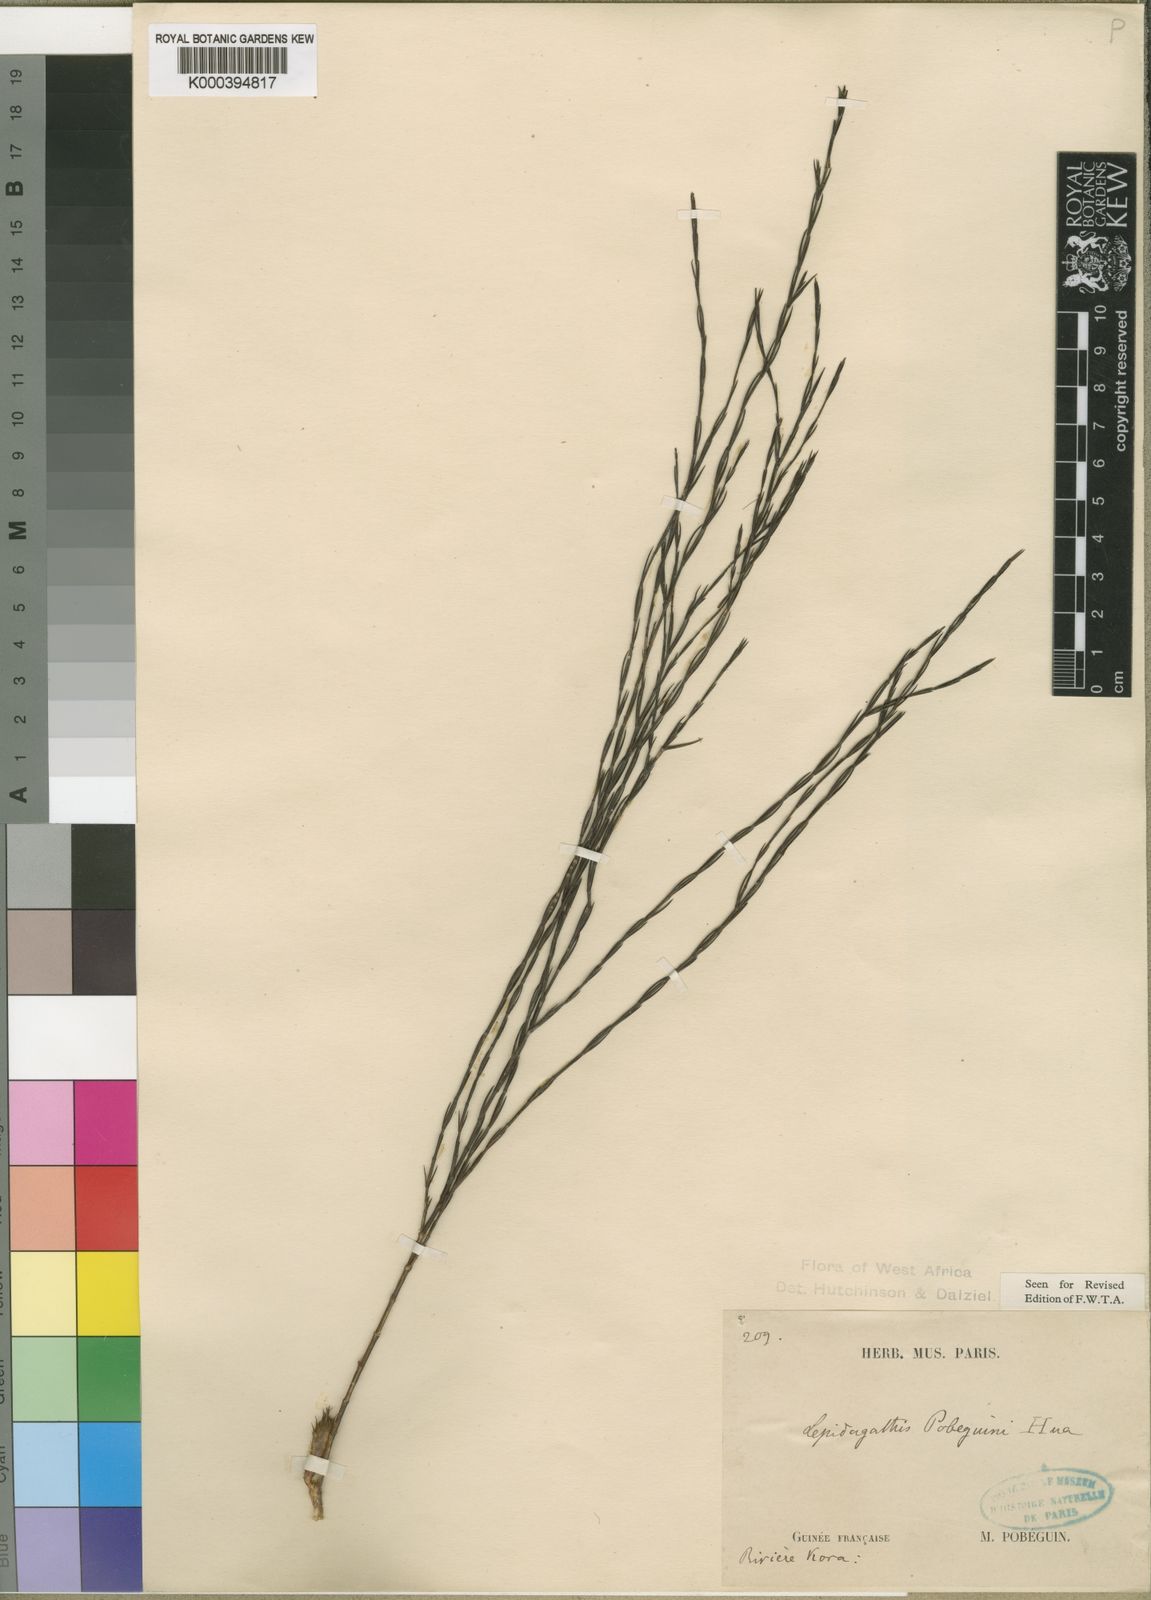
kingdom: Plantae
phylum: Tracheophyta
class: Magnoliopsida
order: Lamiales
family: Acanthaceae
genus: Lepidagathis
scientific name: Lepidagathis pobeguinii
